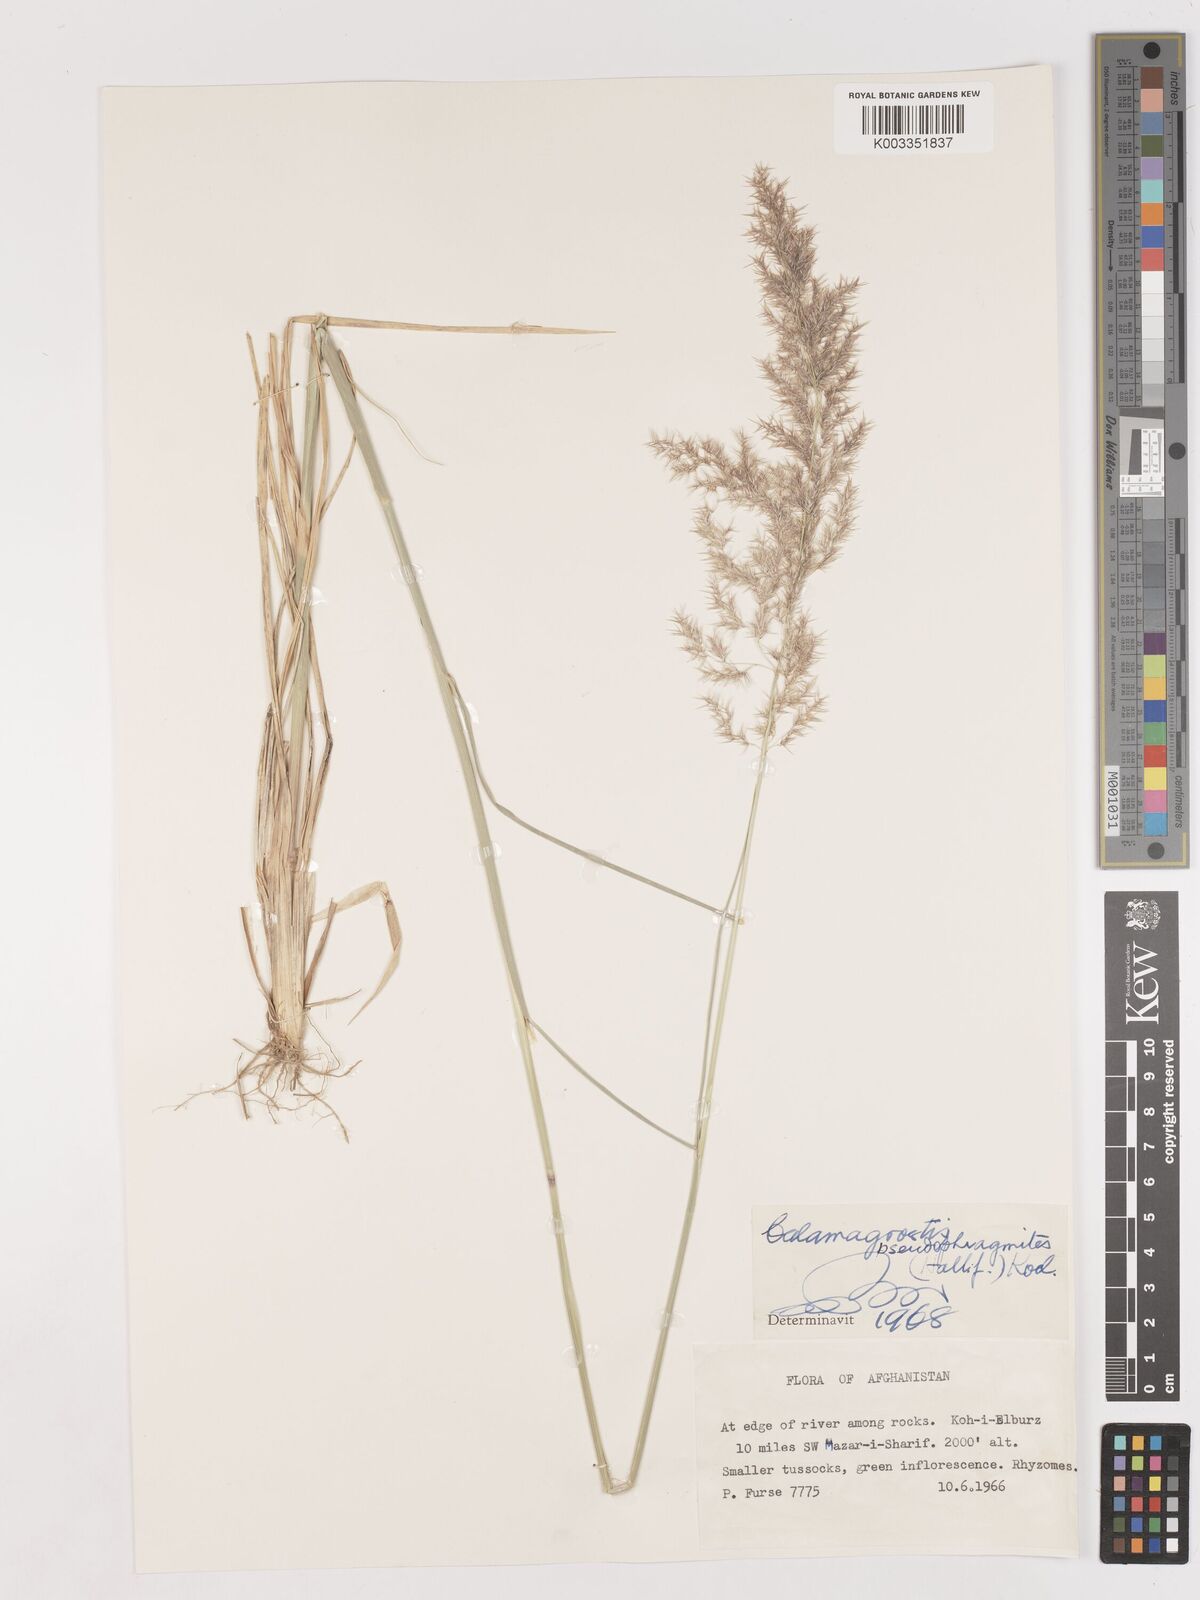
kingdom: Plantae
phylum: Tracheophyta
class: Liliopsida
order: Poales
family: Poaceae
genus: Calamagrostis
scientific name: Calamagrostis pseudophragmites
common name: Coastal small-reed
